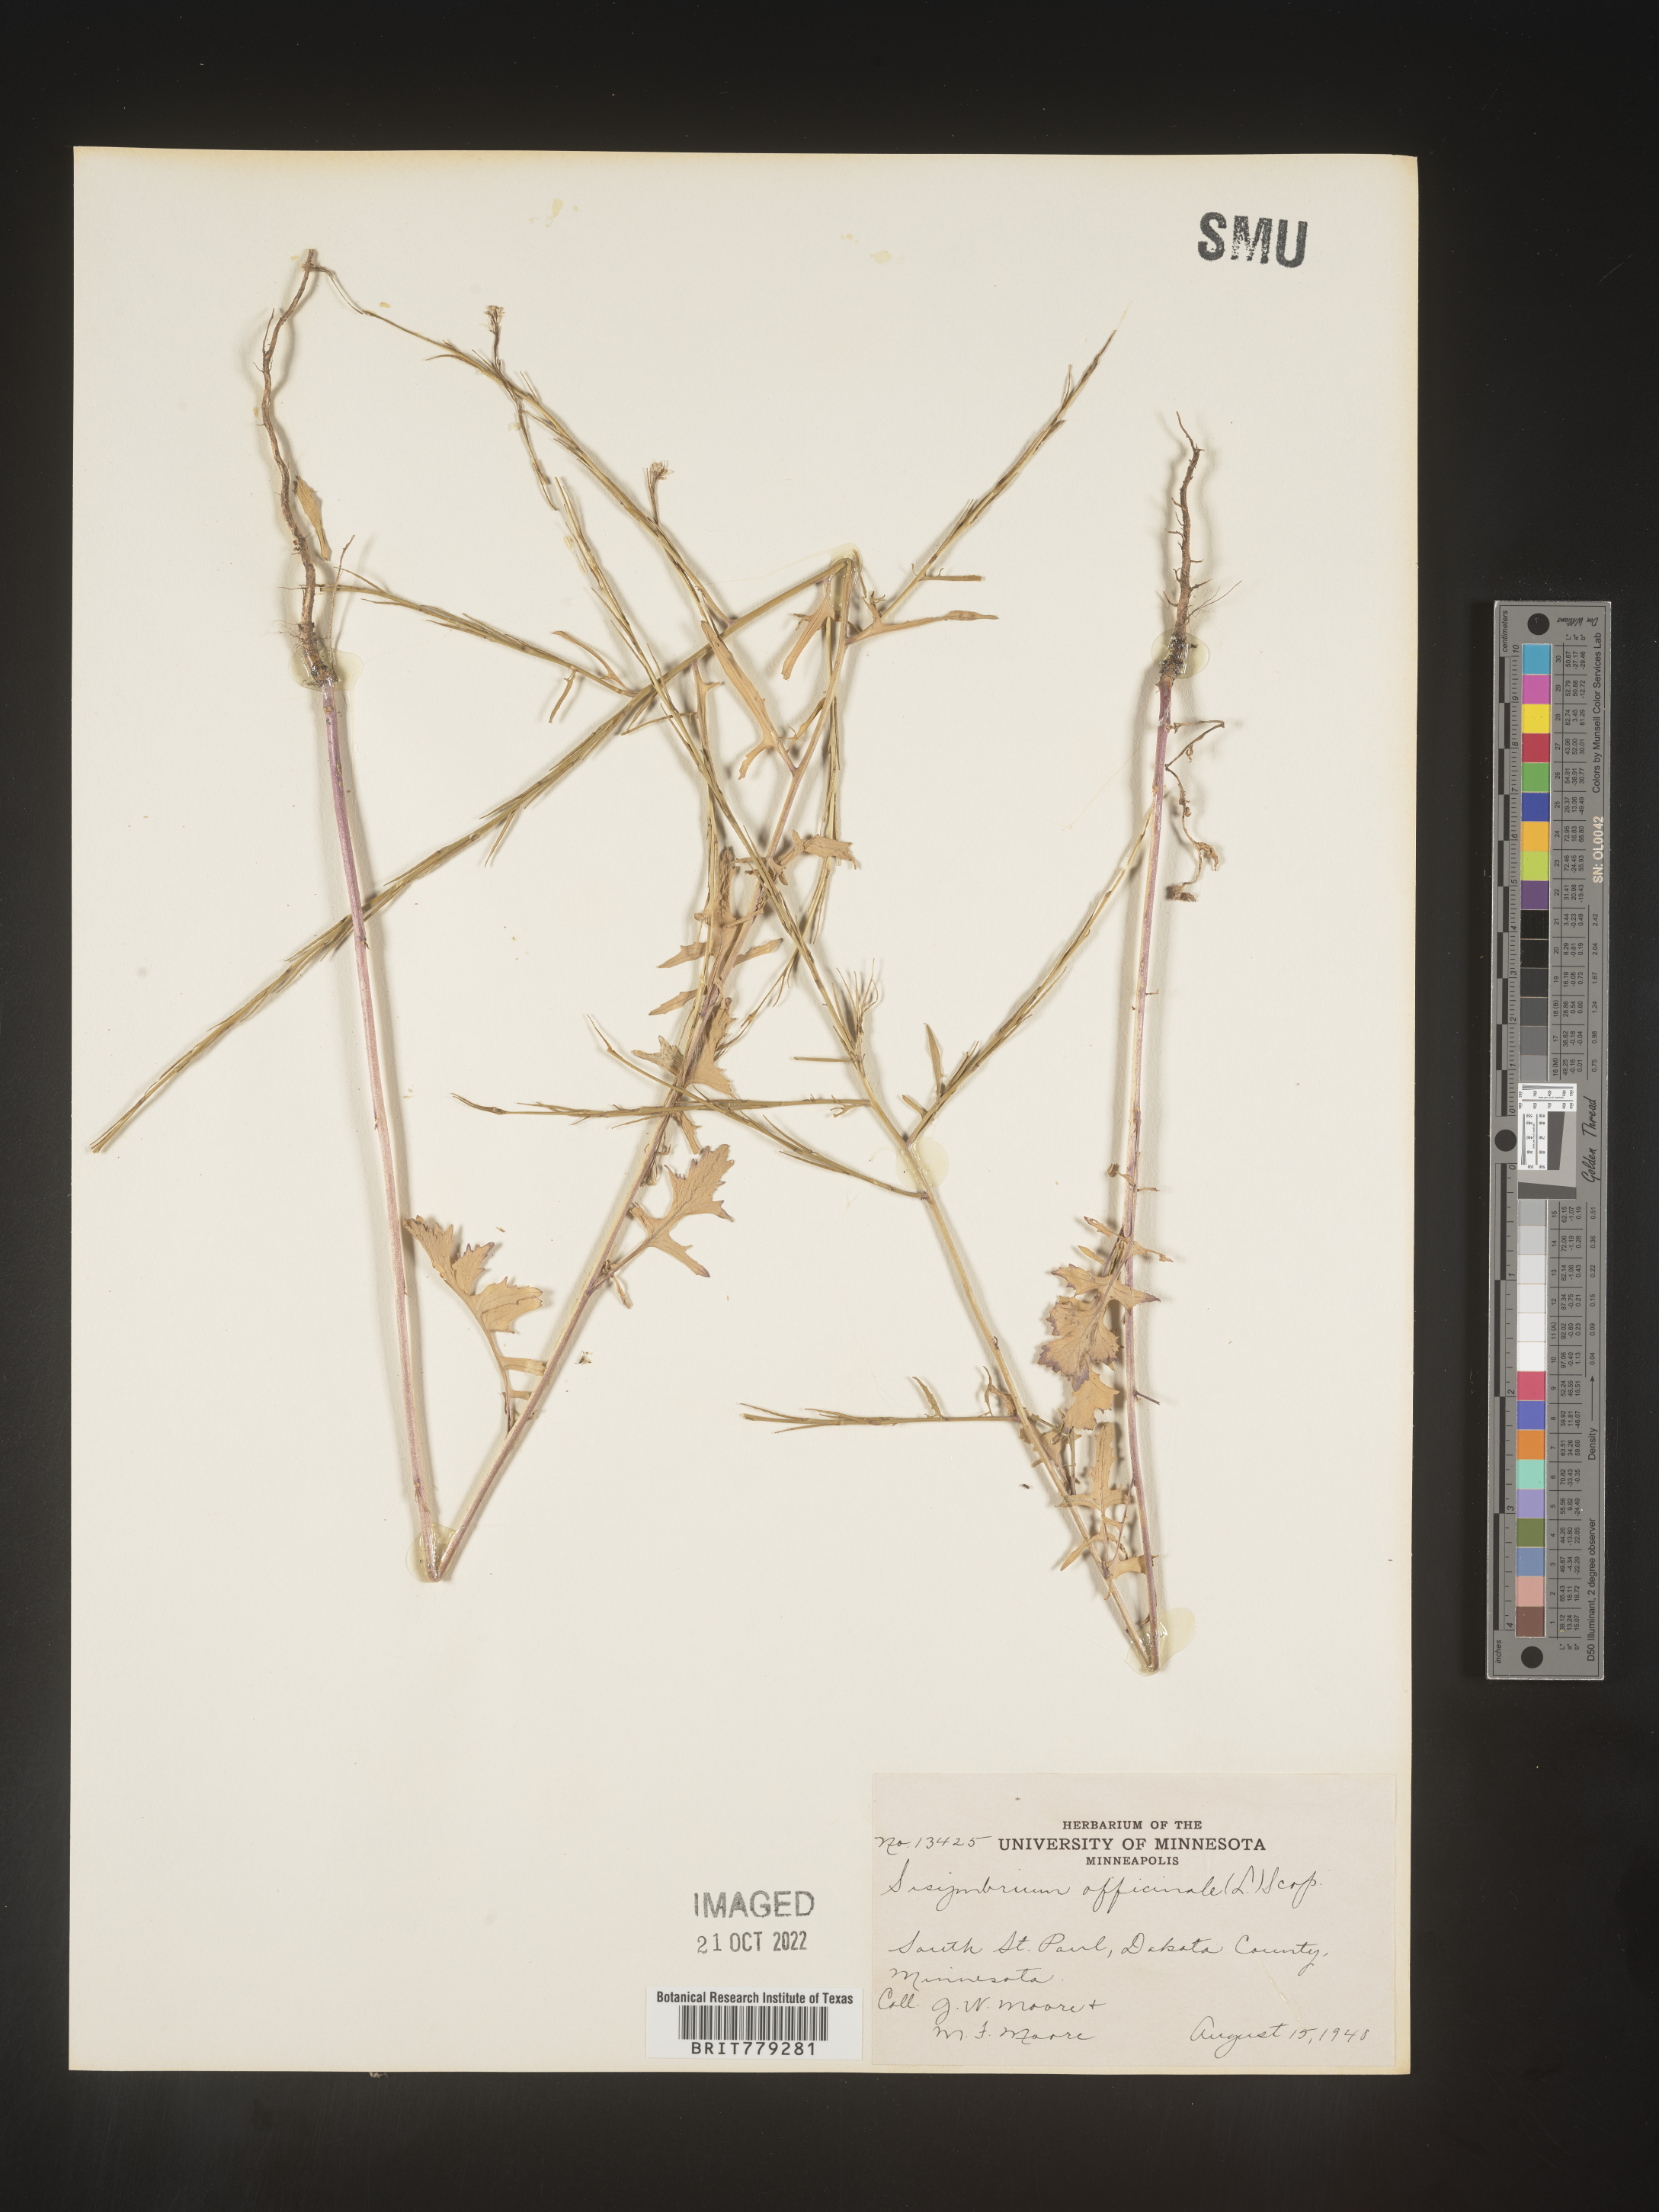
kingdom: Plantae
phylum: Tracheophyta
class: Magnoliopsida
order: Brassicales
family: Brassicaceae
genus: Sisymbrium
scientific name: Sisymbrium officinale
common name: Hedge mustard
